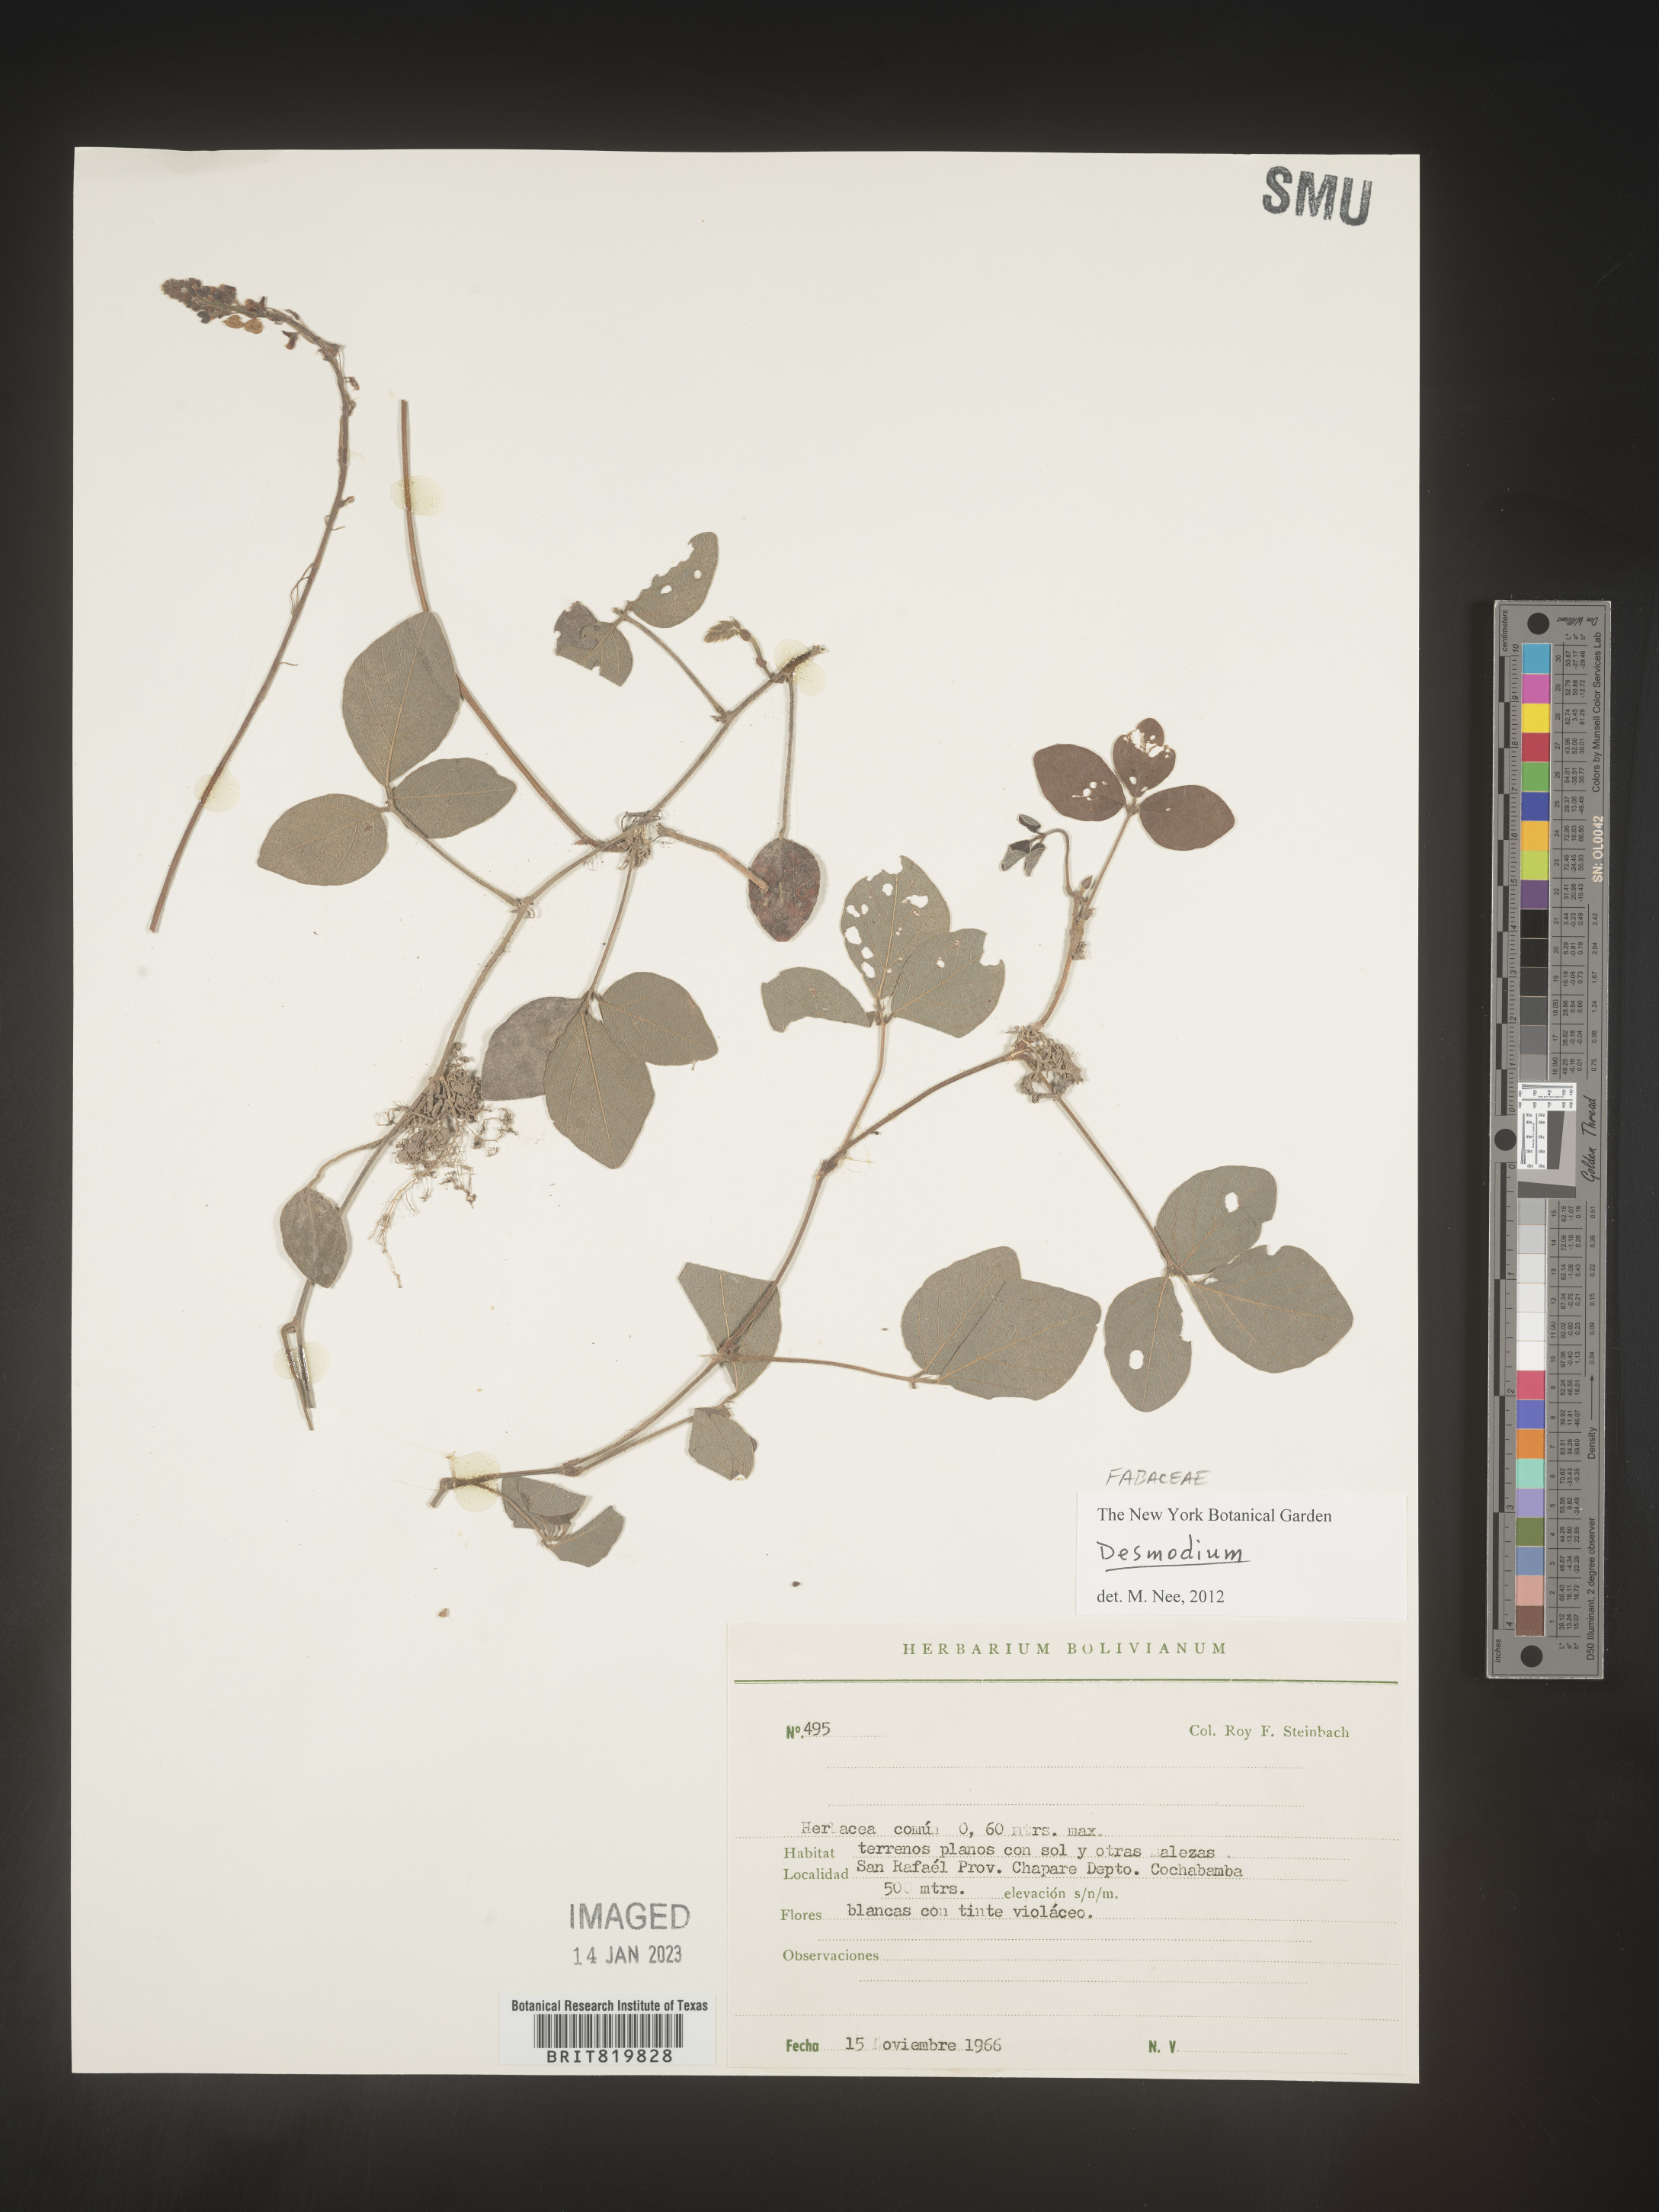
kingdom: Plantae
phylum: Tracheophyta
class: Magnoliopsida
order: Fabales
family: Fabaceae
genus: Desmodium
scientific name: Desmodium
